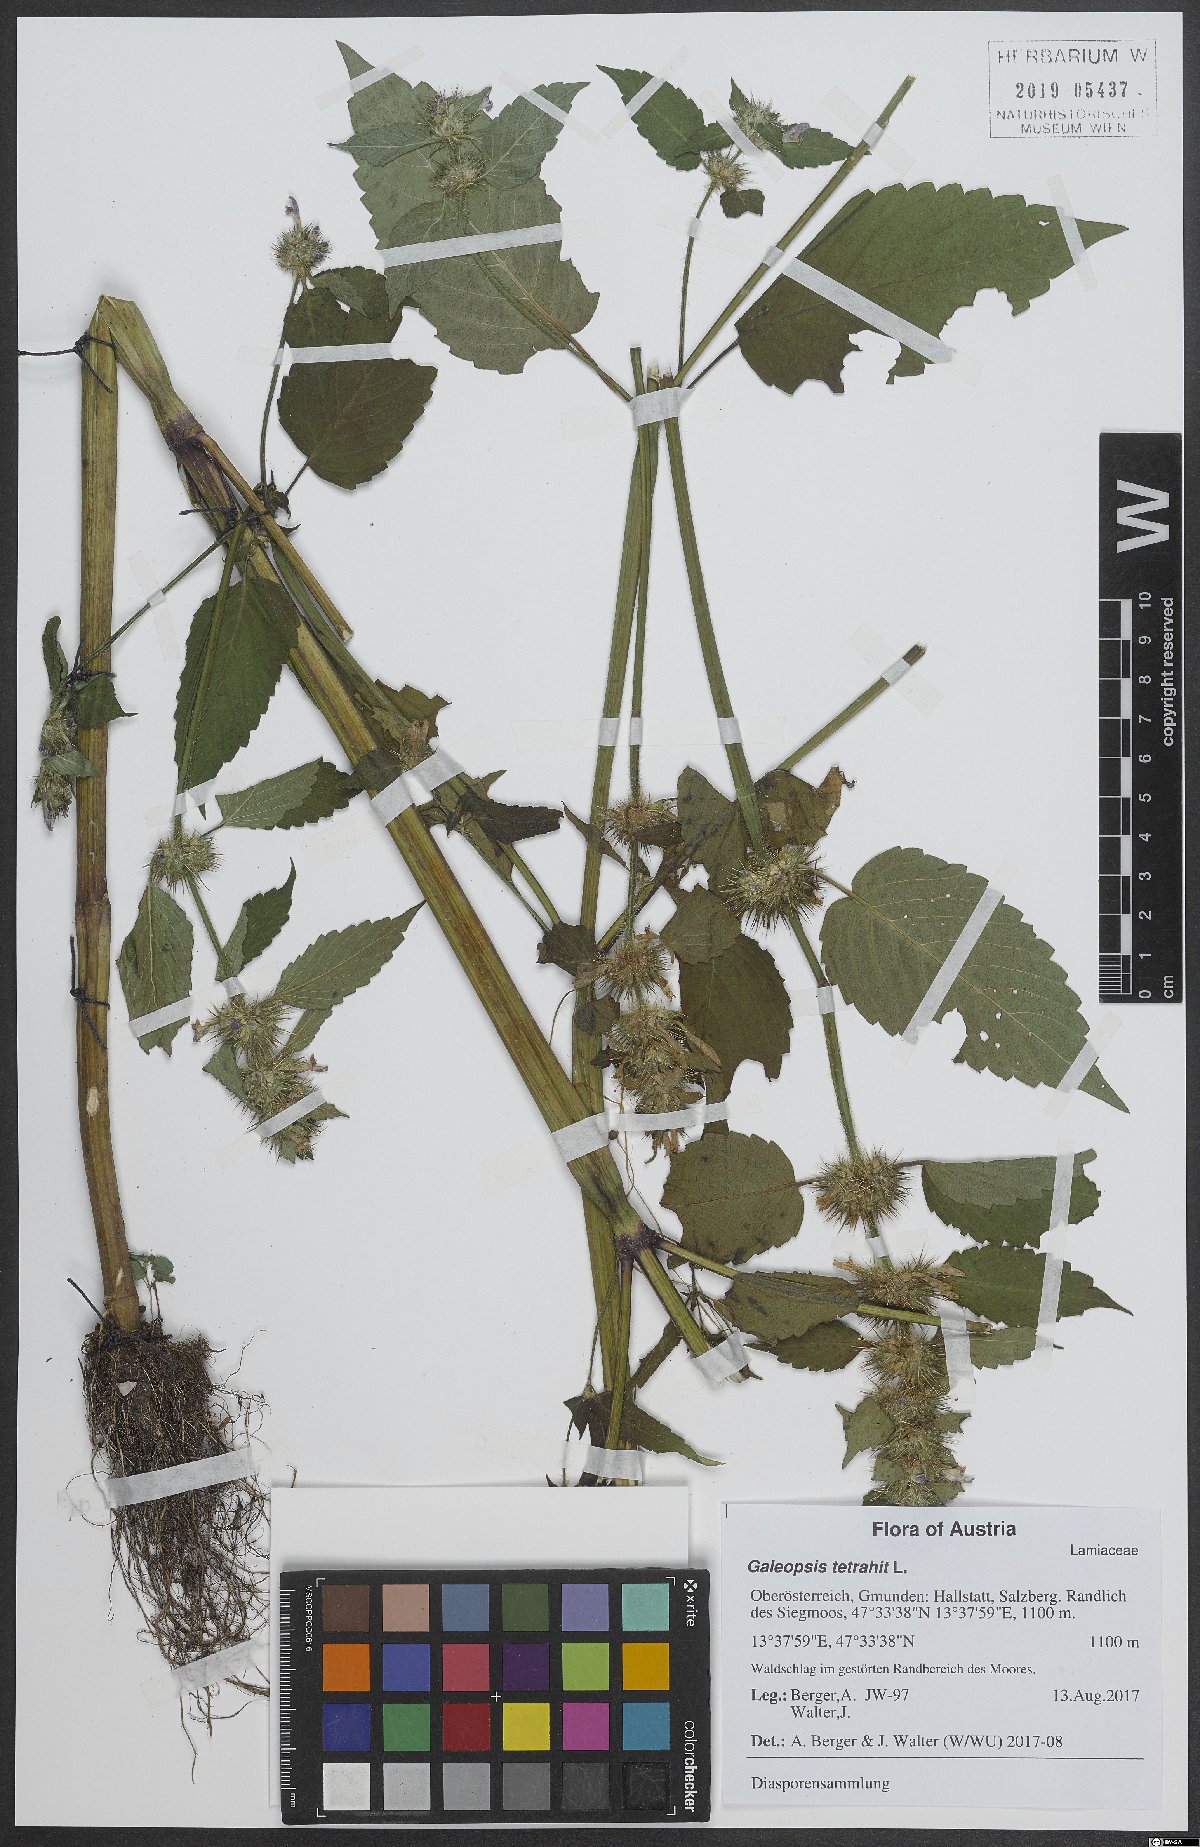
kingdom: Plantae
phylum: Tracheophyta
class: Magnoliopsida
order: Lamiales
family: Lamiaceae
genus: Galeopsis
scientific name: Galeopsis tetrahit
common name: Common hemp-nettle
